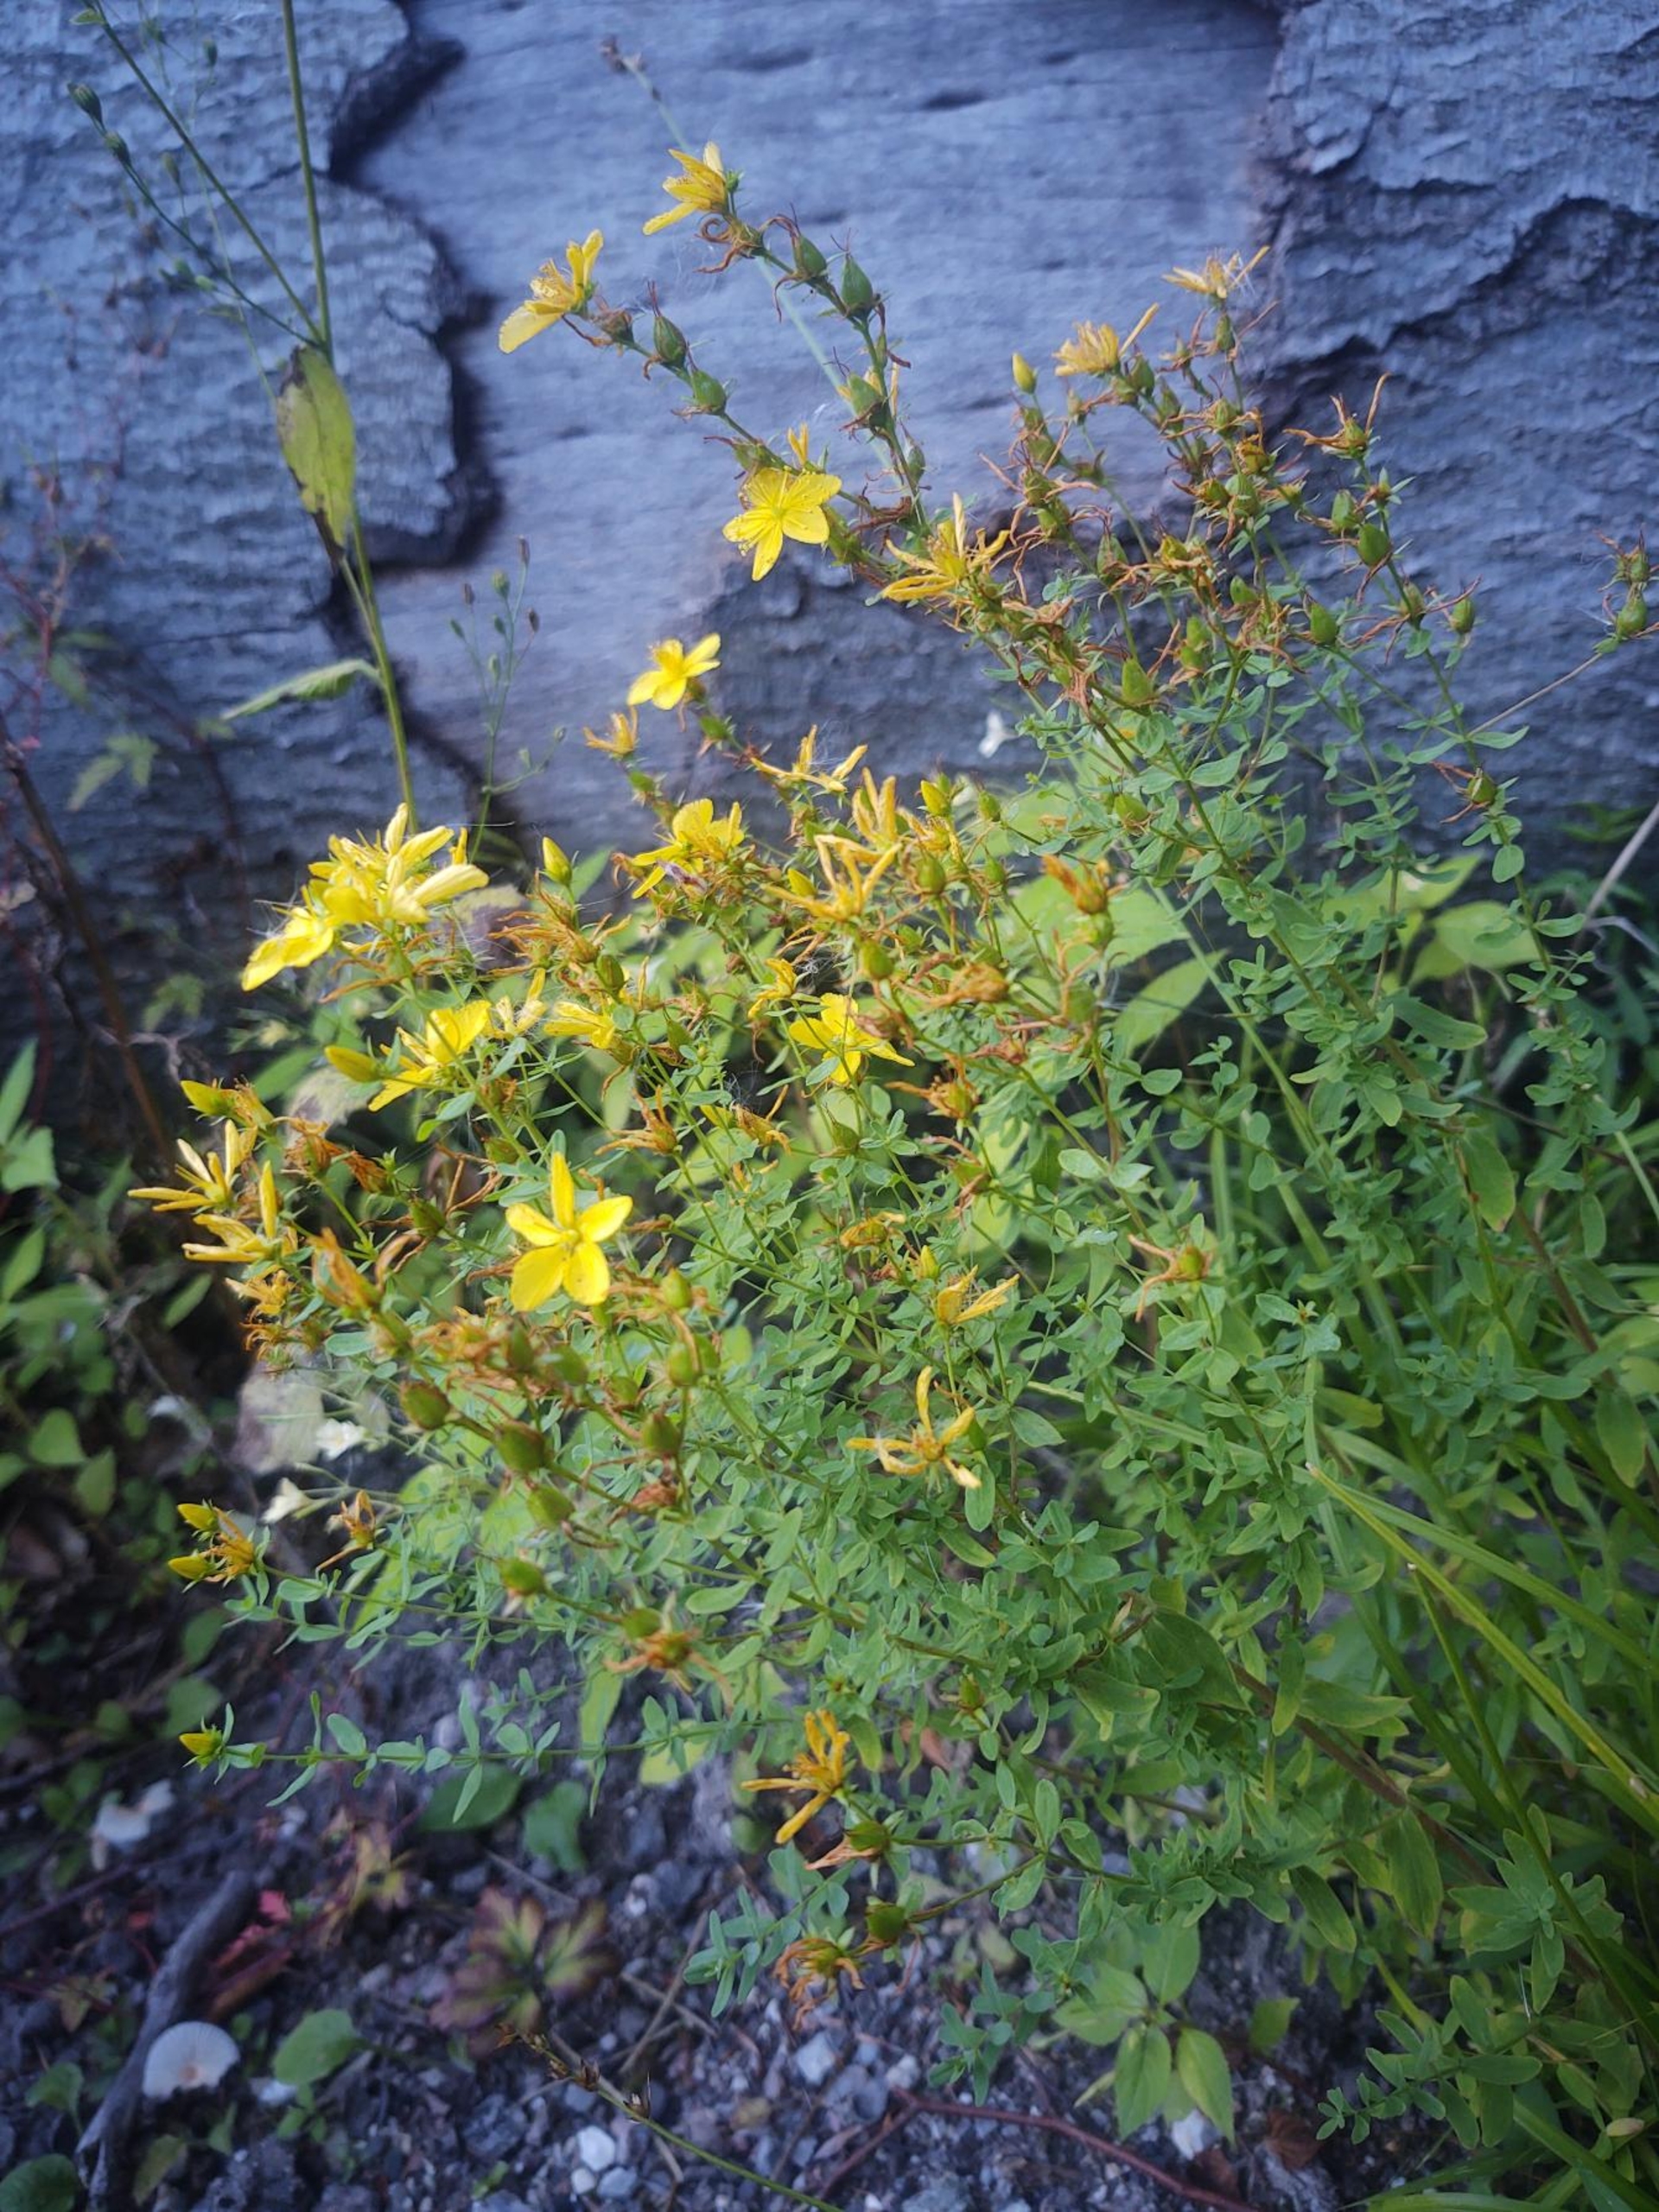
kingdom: Plantae
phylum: Tracheophyta
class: Magnoliopsida
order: Malpighiales
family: Hypericaceae
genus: Hypericum
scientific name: Hypericum perforatum
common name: Prikbladet perikon
